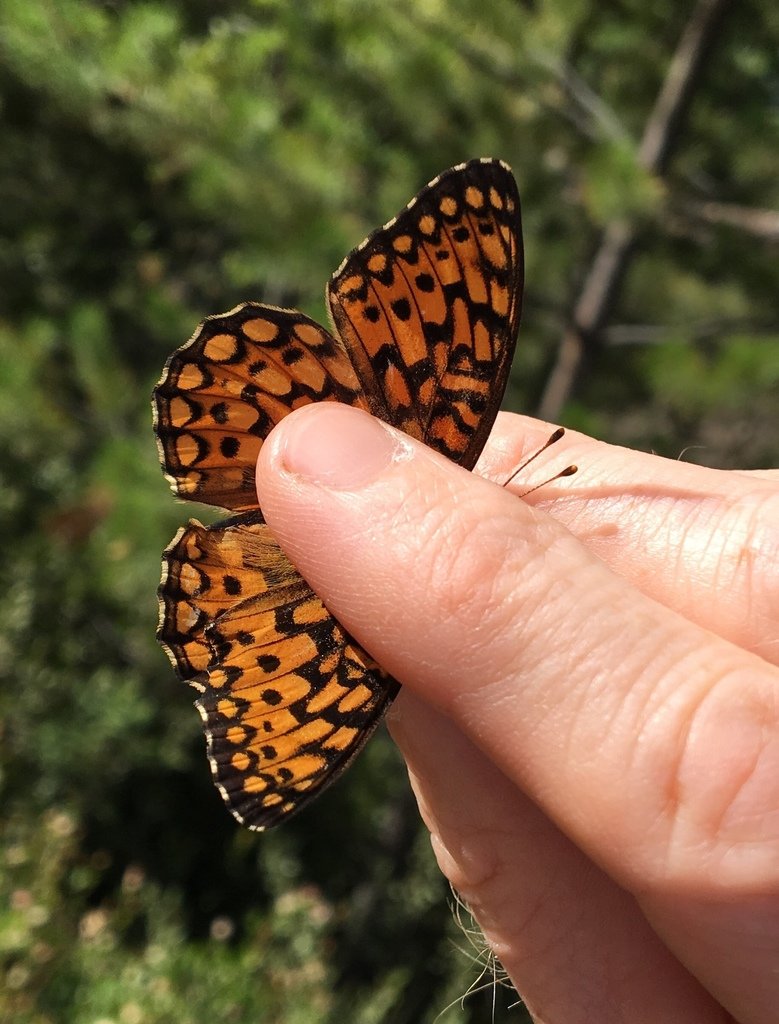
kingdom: Animalia
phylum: Arthropoda
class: Insecta
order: Lepidoptera
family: Nymphalidae
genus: Speyeria
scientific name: Speyeria callippe
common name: Callippe Fritillary
